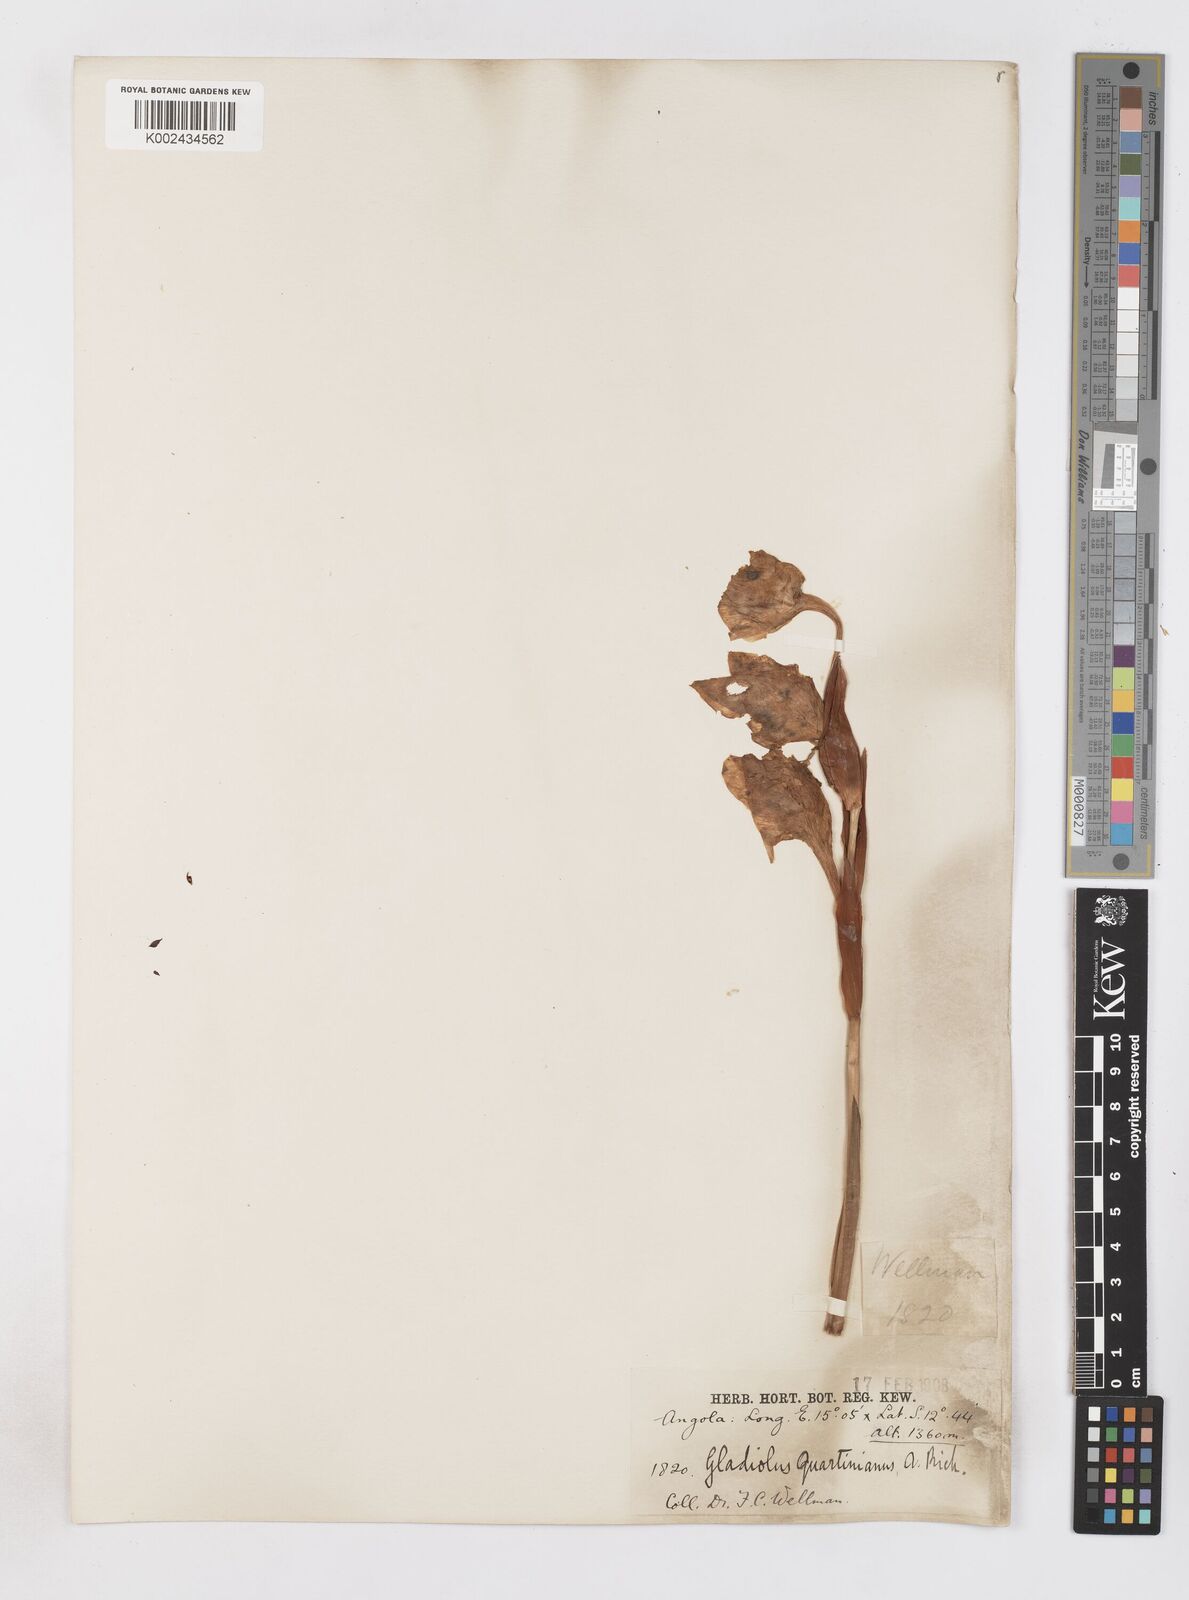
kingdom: Plantae
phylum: Tracheophyta
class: Liliopsida
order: Asparagales
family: Iridaceae
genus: Gladiolus
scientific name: Gladiolus dalenii
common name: Cornflag
